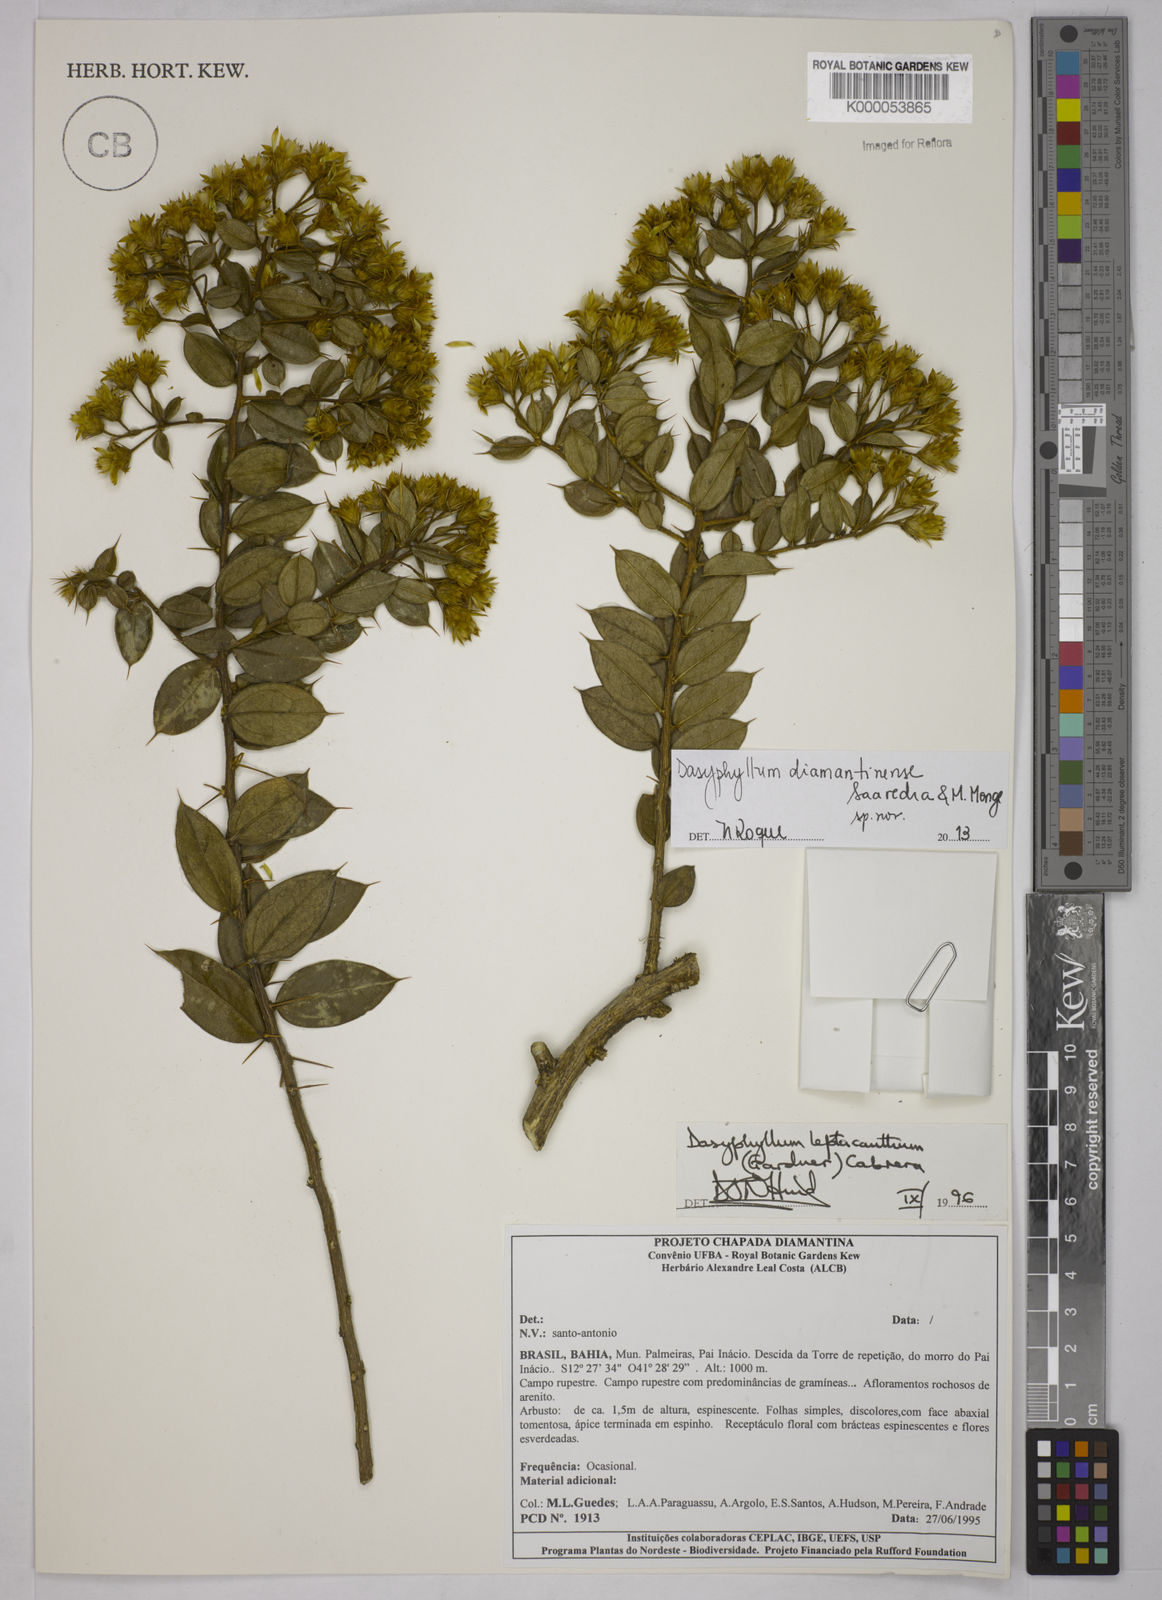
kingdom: Plantae
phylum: Tracheophyta
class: Magnoliopsida
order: Asterales
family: Asteraceae
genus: Dasyphyllum
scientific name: Dasyphyllum leptacanthum
